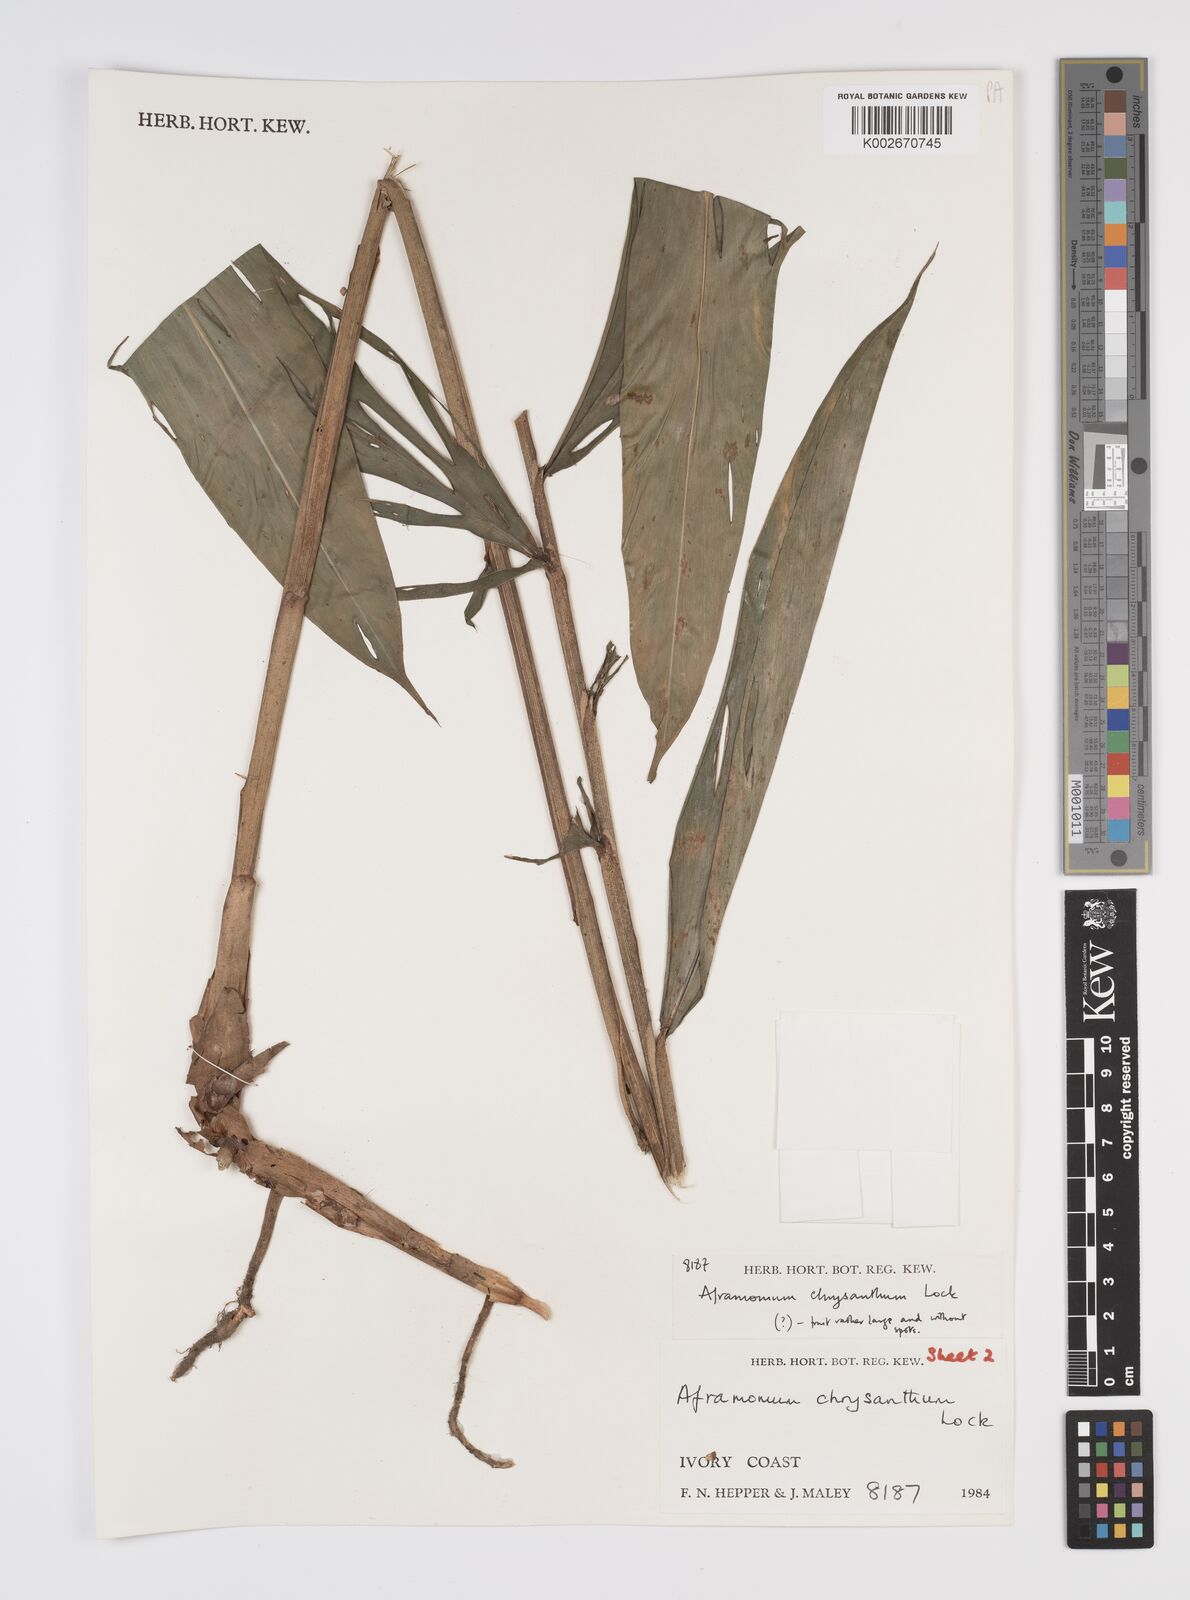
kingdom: Plantae
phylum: Tracheophyta
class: Liliopsida
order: Zingiberales
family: Zingiberaceae
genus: Aframomum
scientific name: Aframomum chrysanthum
